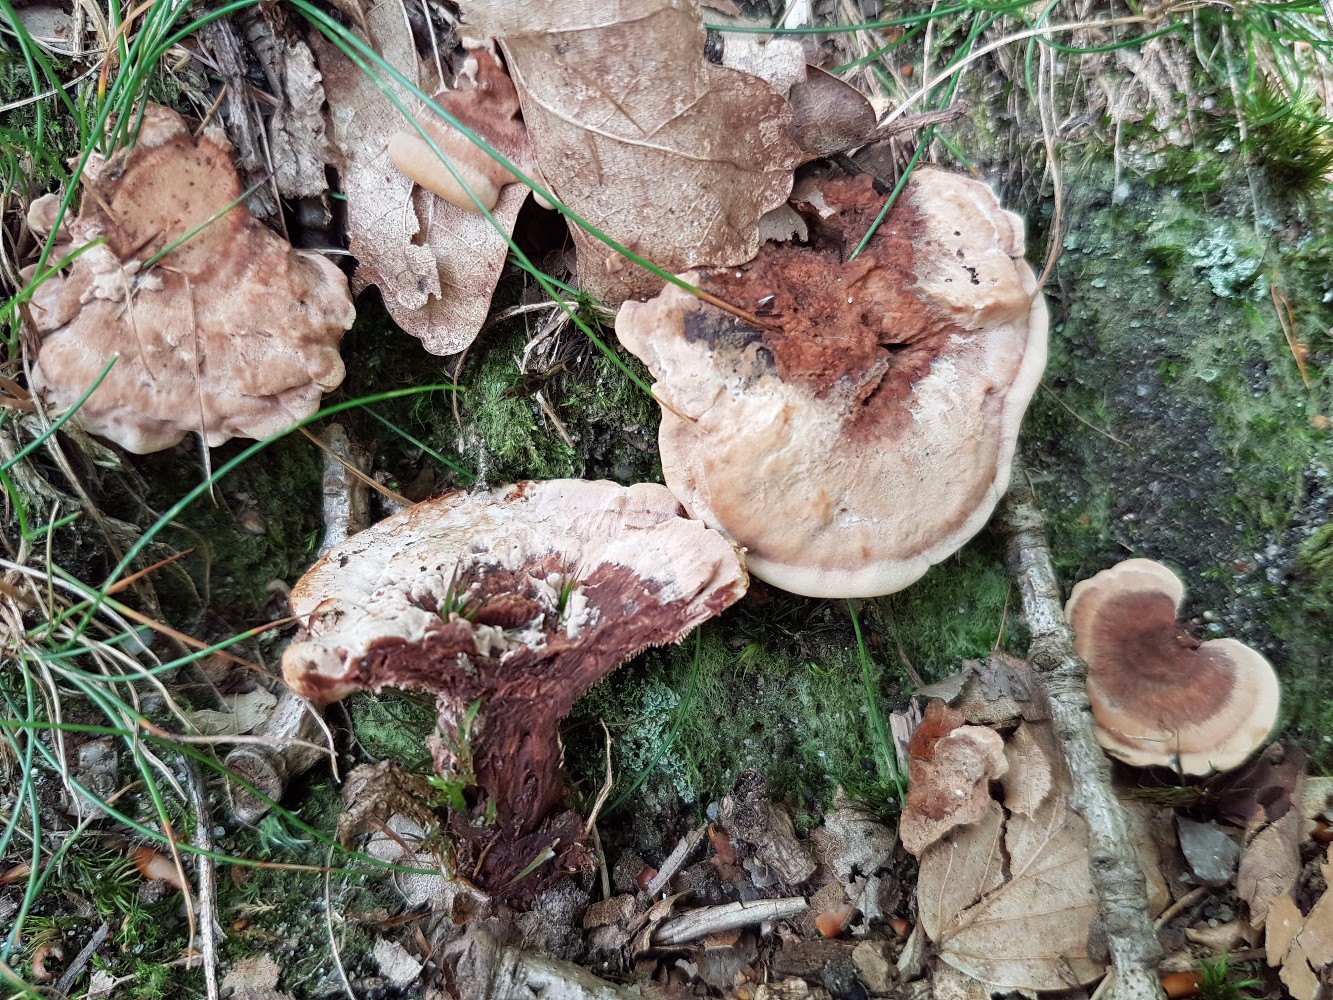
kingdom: Fungi
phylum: Basidiomycota
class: Agaricomycetes
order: Thelephorales
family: Bankeraceae
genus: Hydnellum
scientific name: Hydnellum concrescens
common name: bæltet korkpigsvamp
